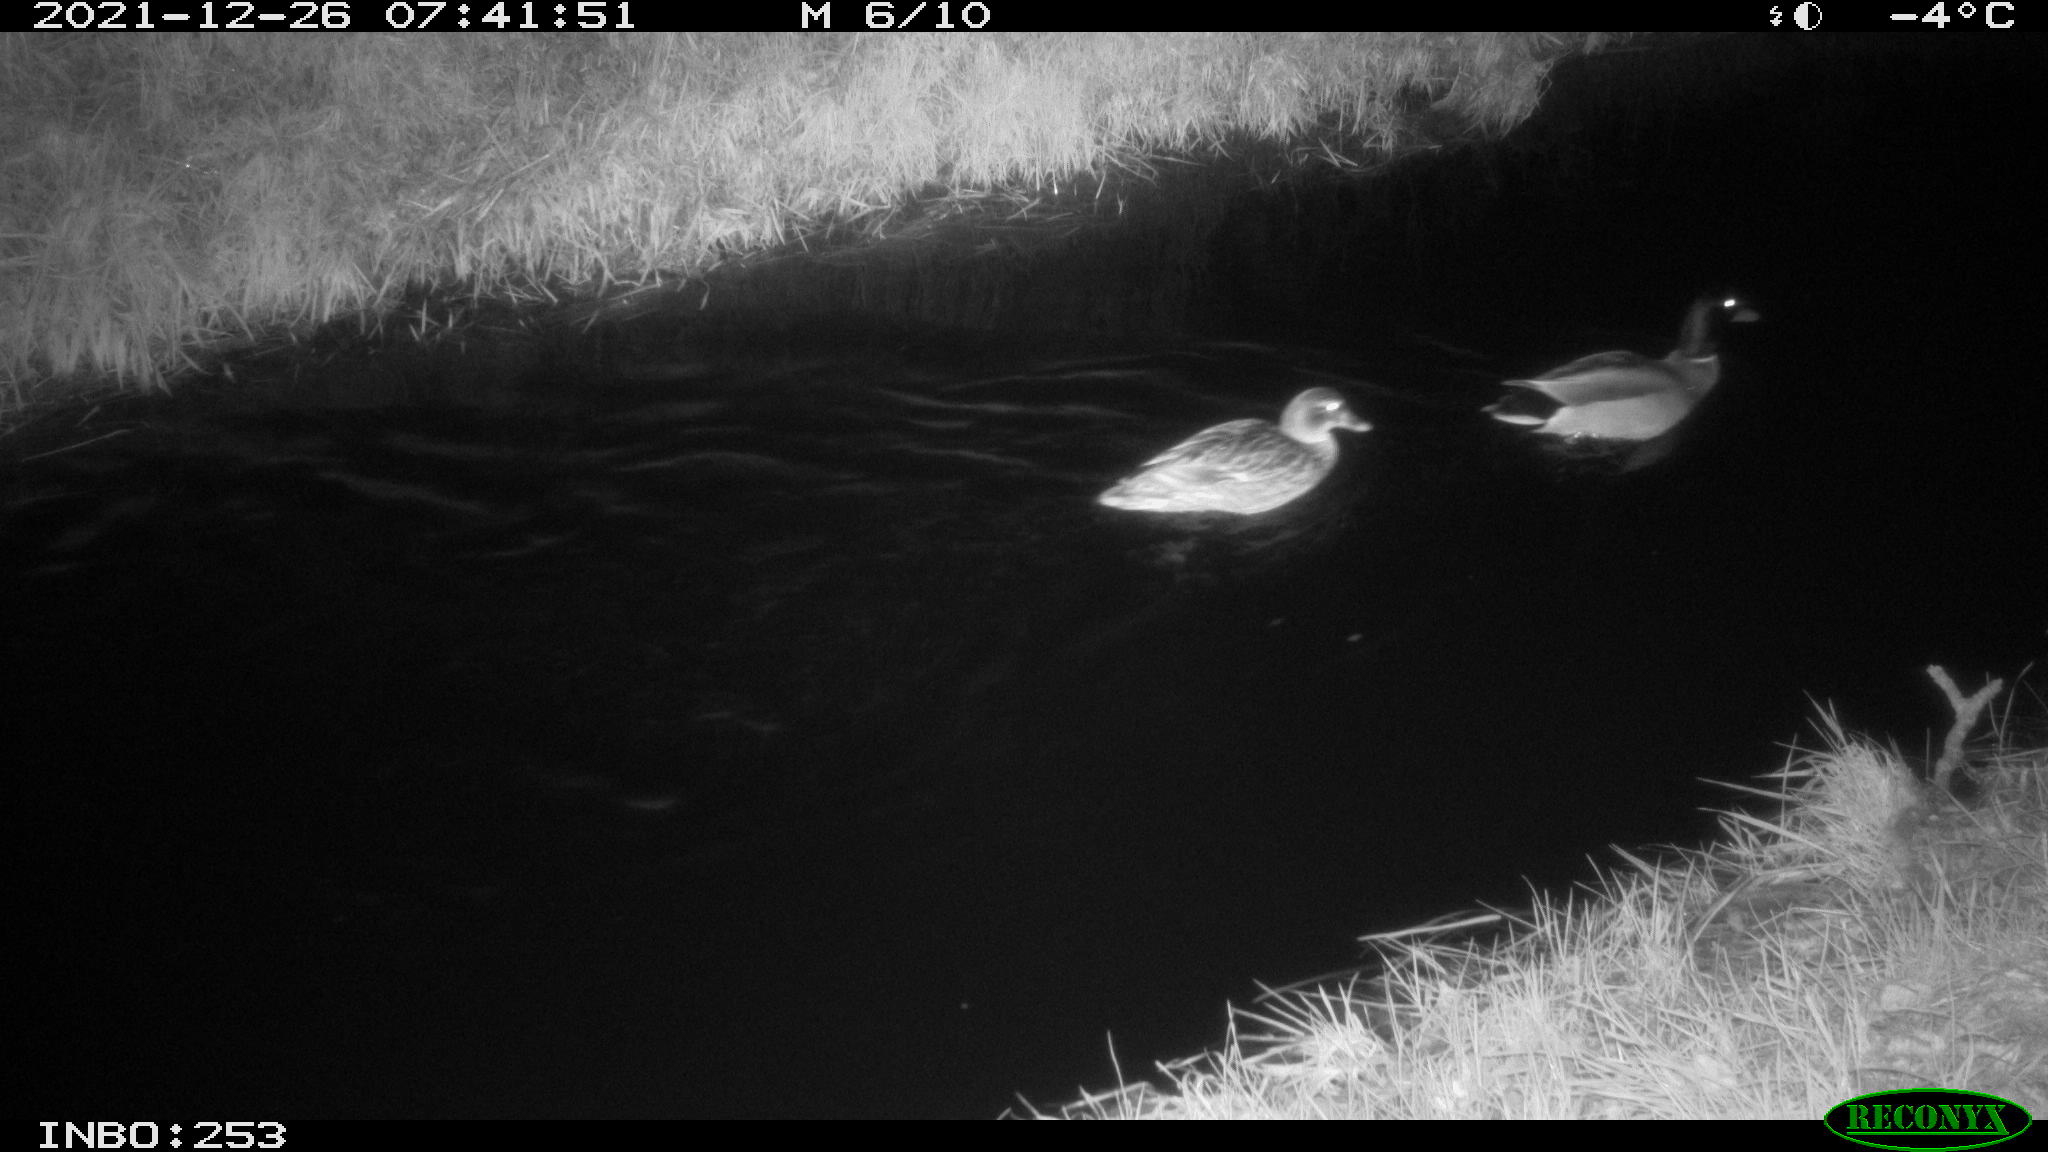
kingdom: Animalia
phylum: Chordata
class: Aves
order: Anseriformes
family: Anatidae
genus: Anas
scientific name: Anas
